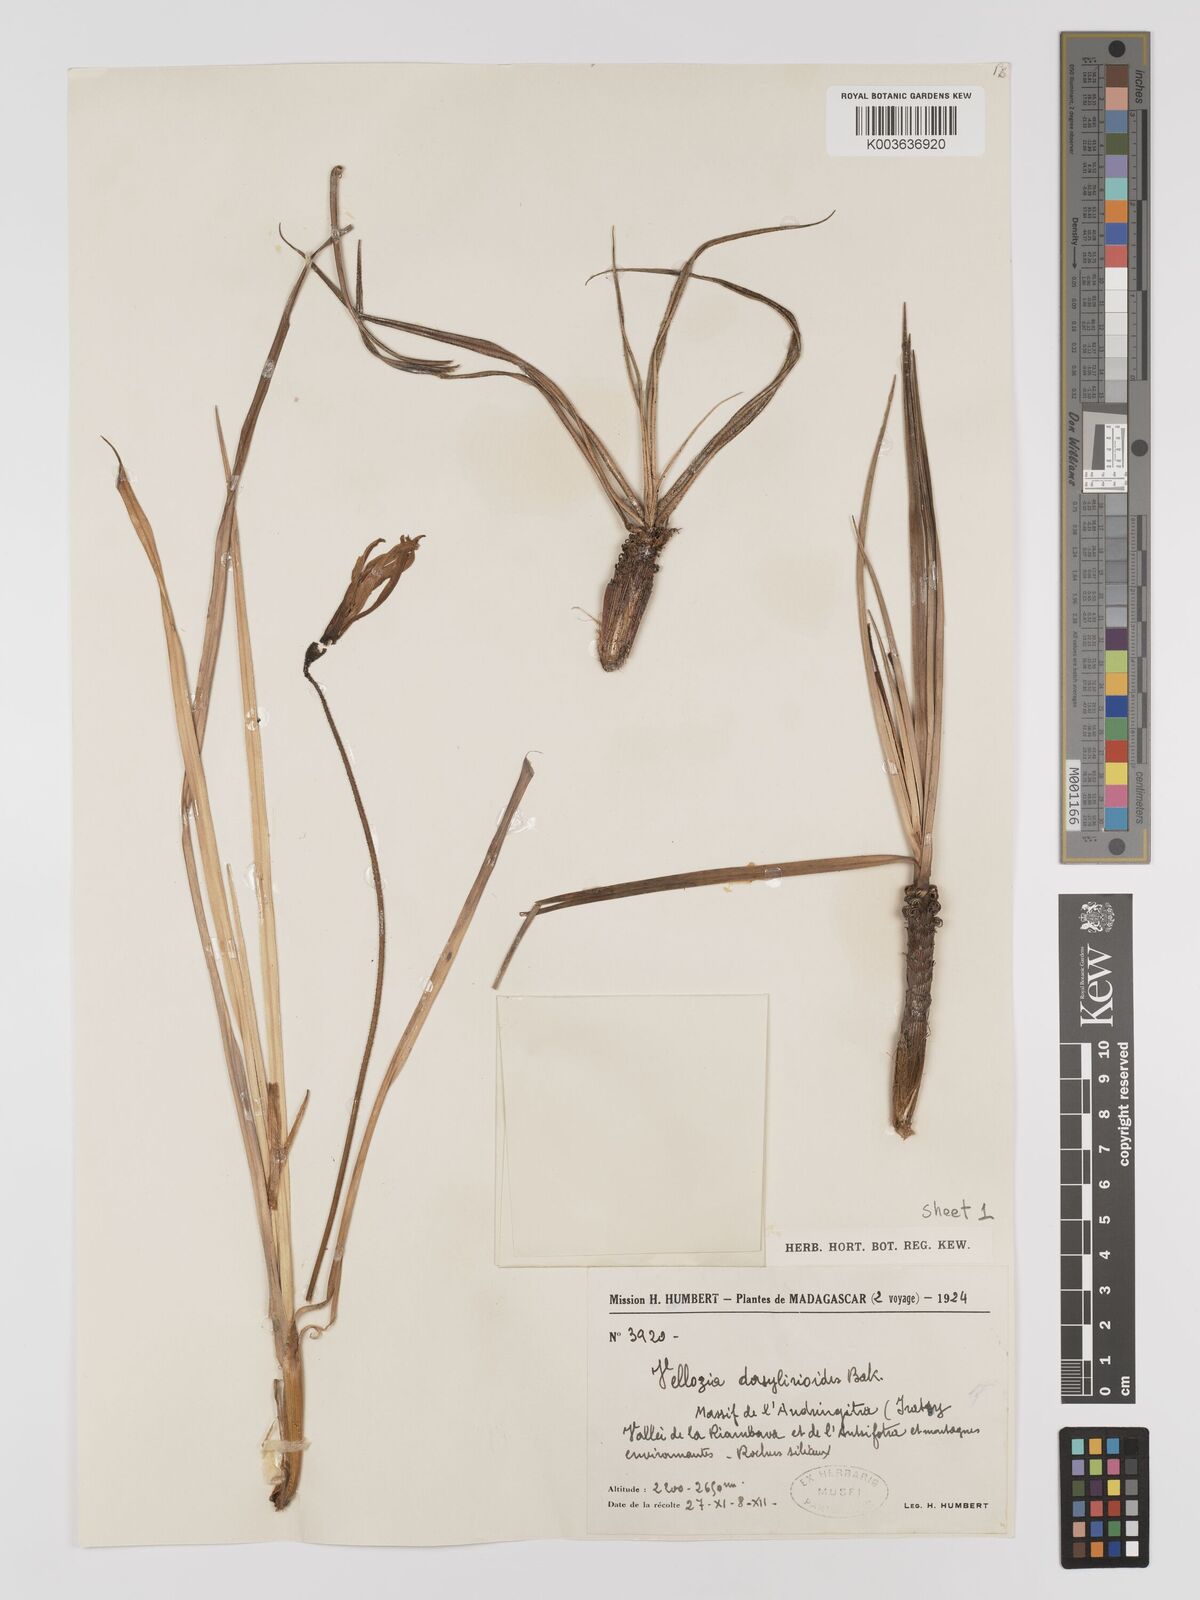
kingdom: Plantae
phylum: Tracheophyta
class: Liliopsida
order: Pandanales
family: Velloziaceae
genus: Xerophyta
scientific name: Xerophyta dasylirioides
